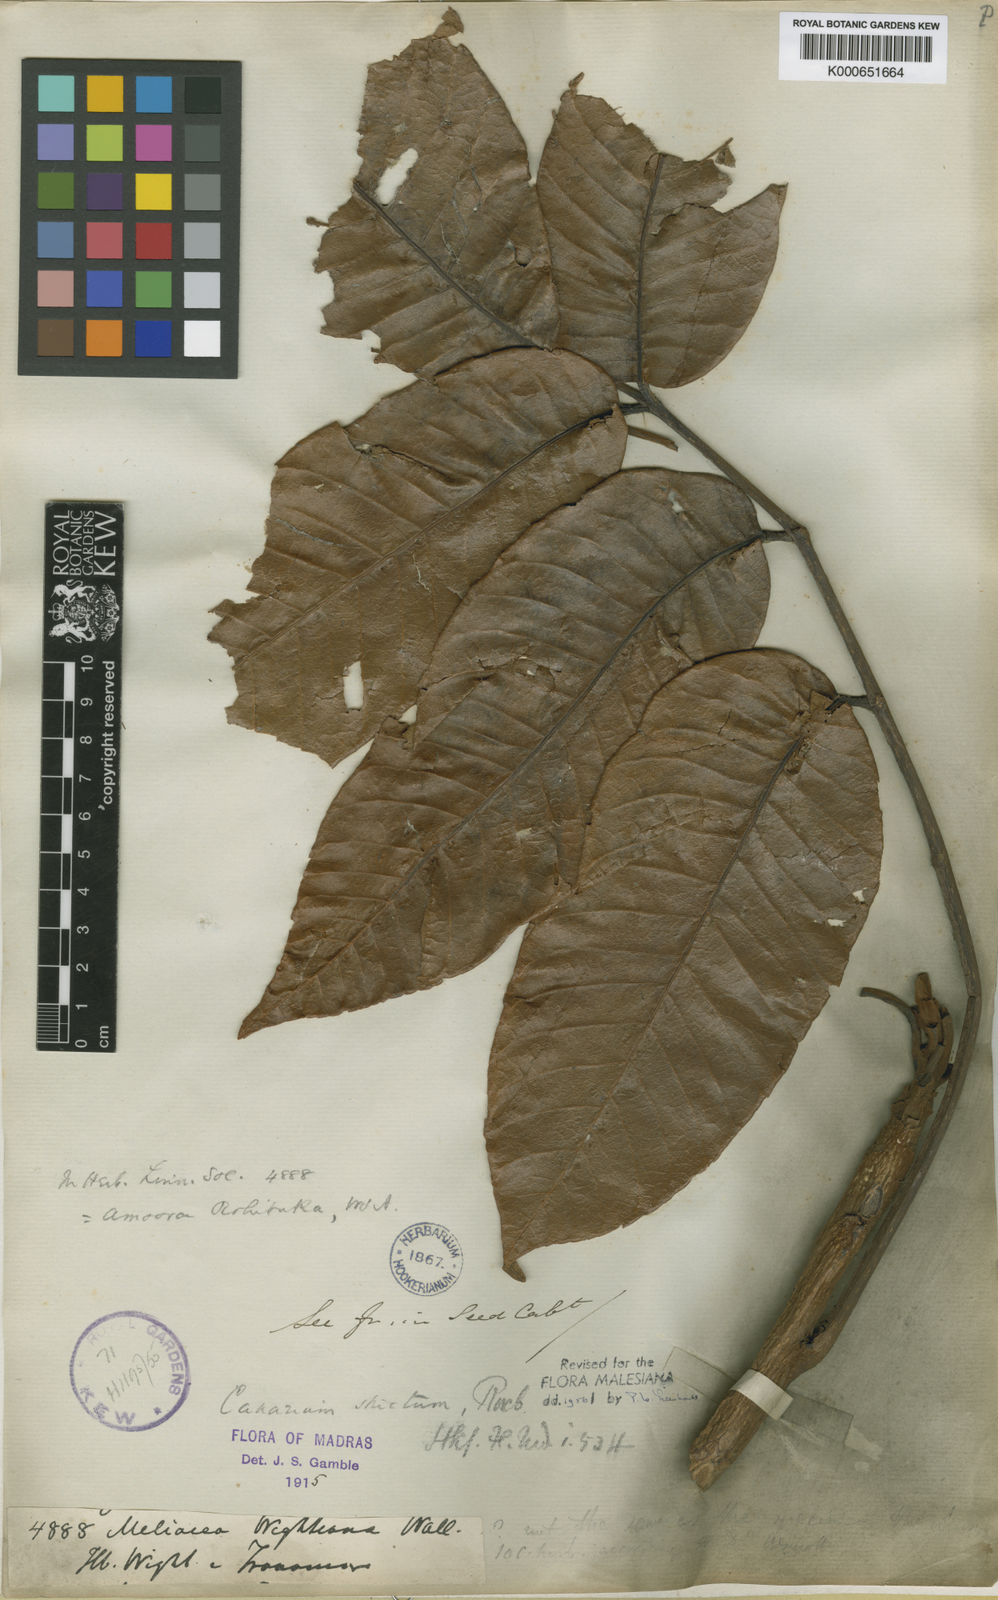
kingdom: Plantae
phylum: Tracheophyta
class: Magnoliopsida
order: Sapindales
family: Burseraceae
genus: Canarium
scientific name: Canarium strictum
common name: Indian white-mahogany
